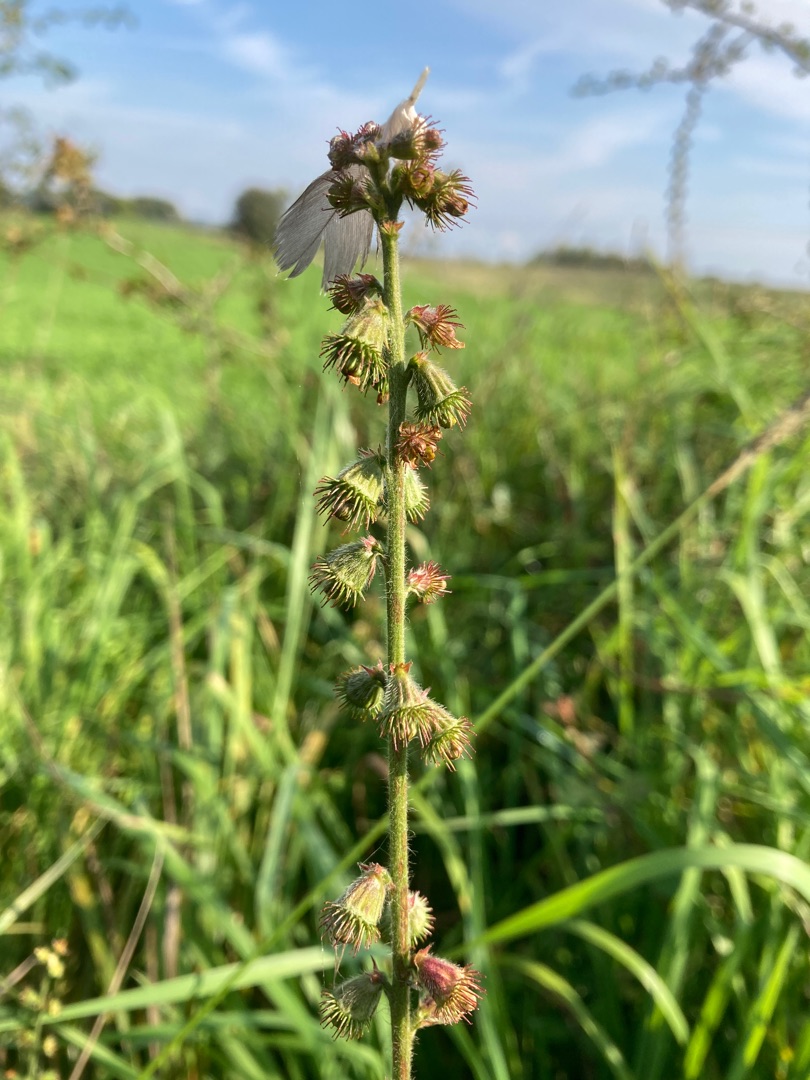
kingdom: Plantae
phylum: Tracheophyta
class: Magnoliopsida
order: Rosales
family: Rosaceae
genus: Agrimonia
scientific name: Agrimonia eupatoria
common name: Almindelig agermåne
